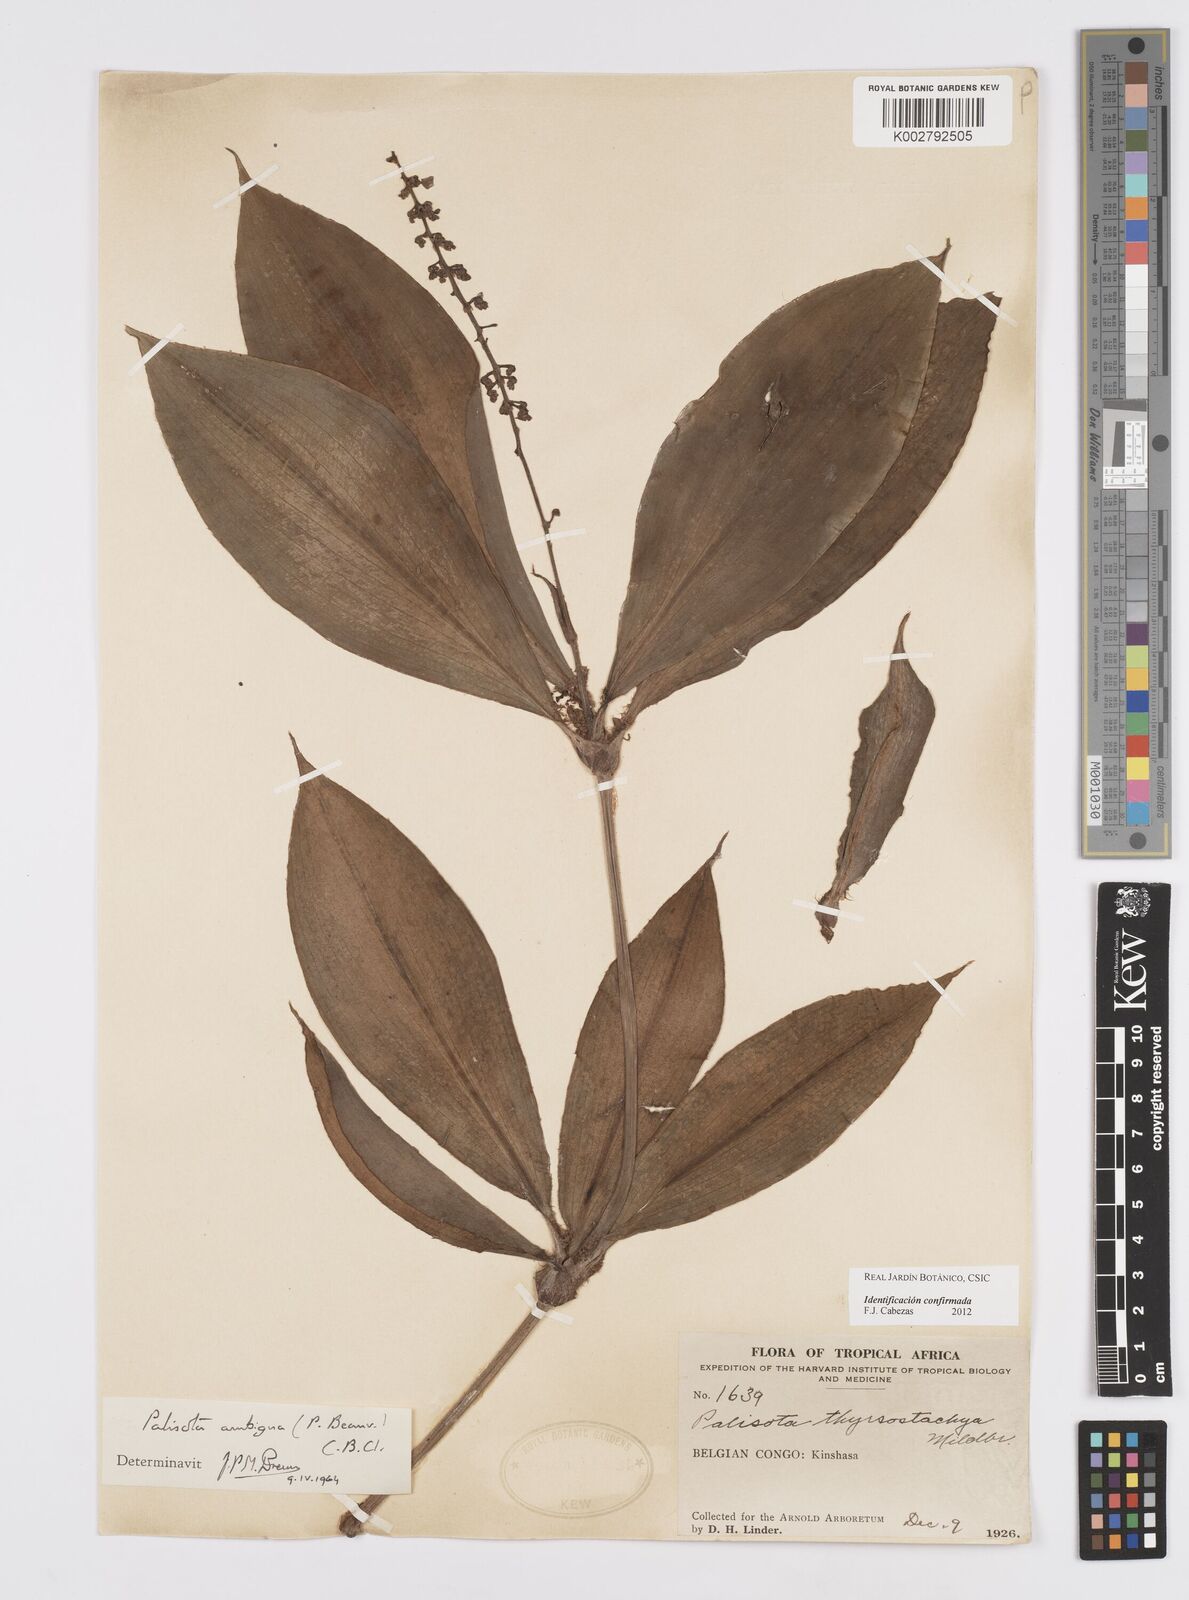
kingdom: Plantae
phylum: Tracheophyta
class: Liliopsida
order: Commelinales
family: Commelinaceae
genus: Palisota
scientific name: Palisota ambigua
